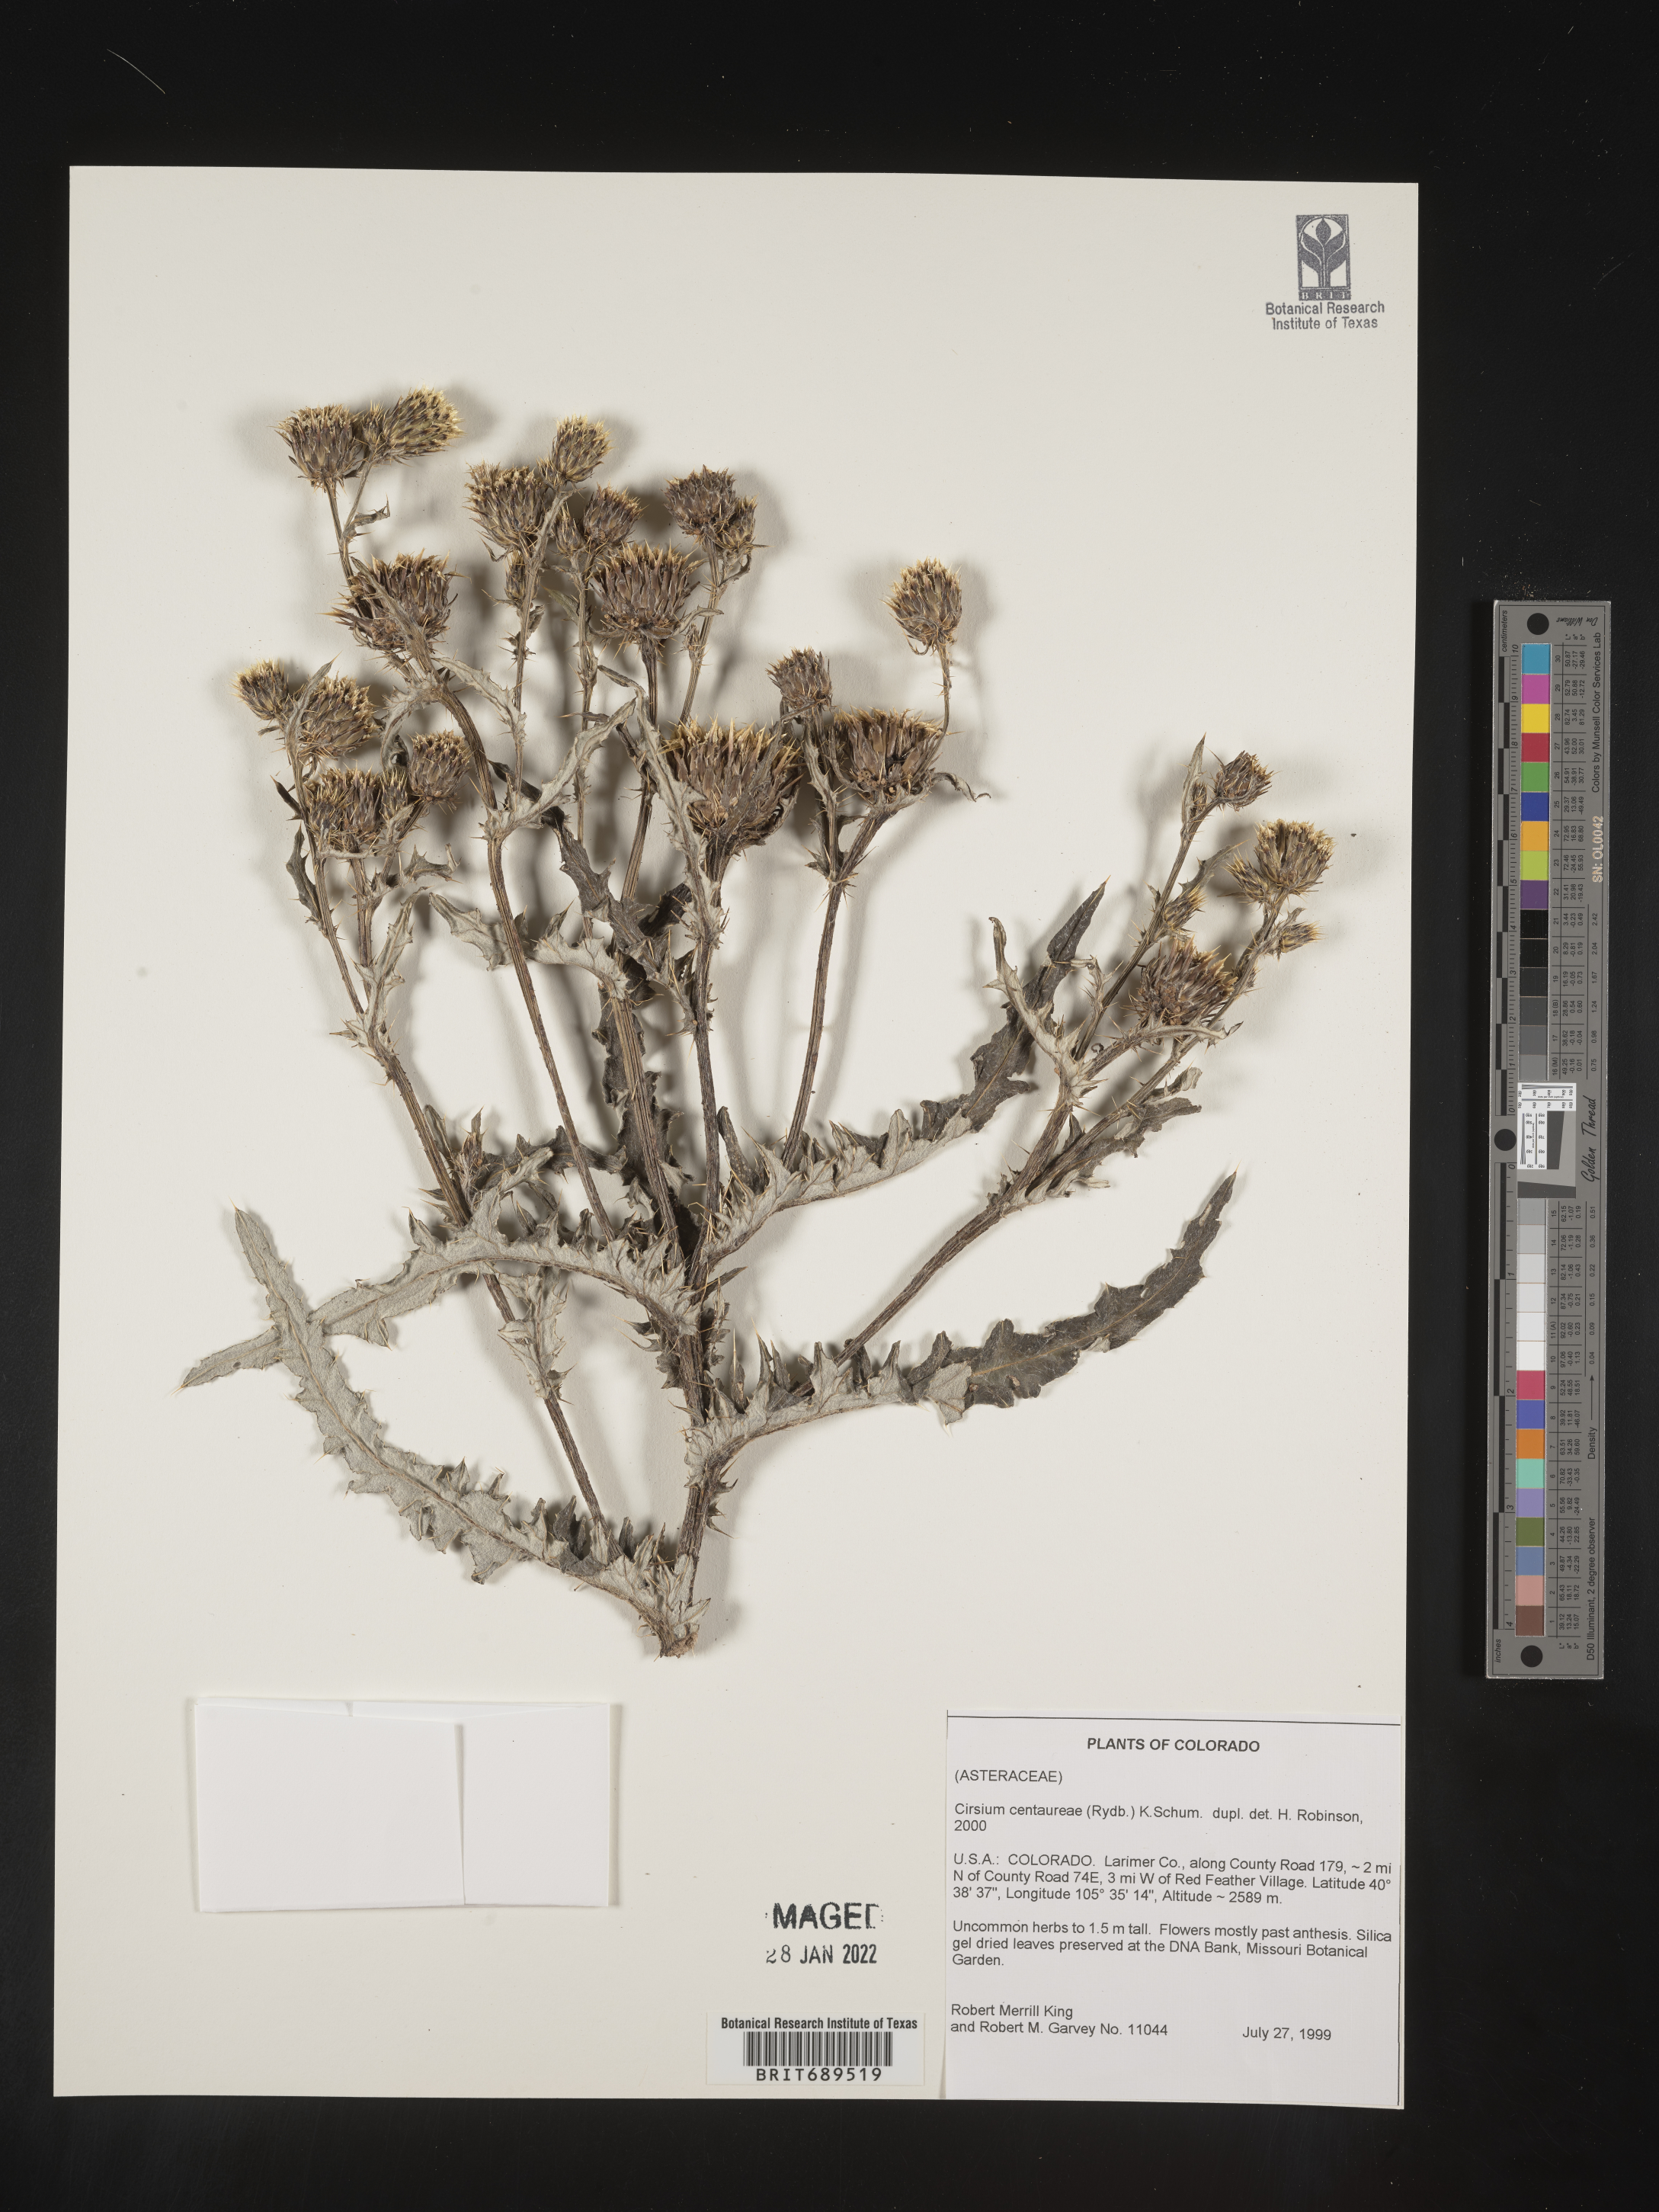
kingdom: Plantae
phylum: Tracheophyta
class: Magnoliopsida
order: Asterales
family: Asteraceae
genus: Cirsium
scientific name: Cirsium centaureae
